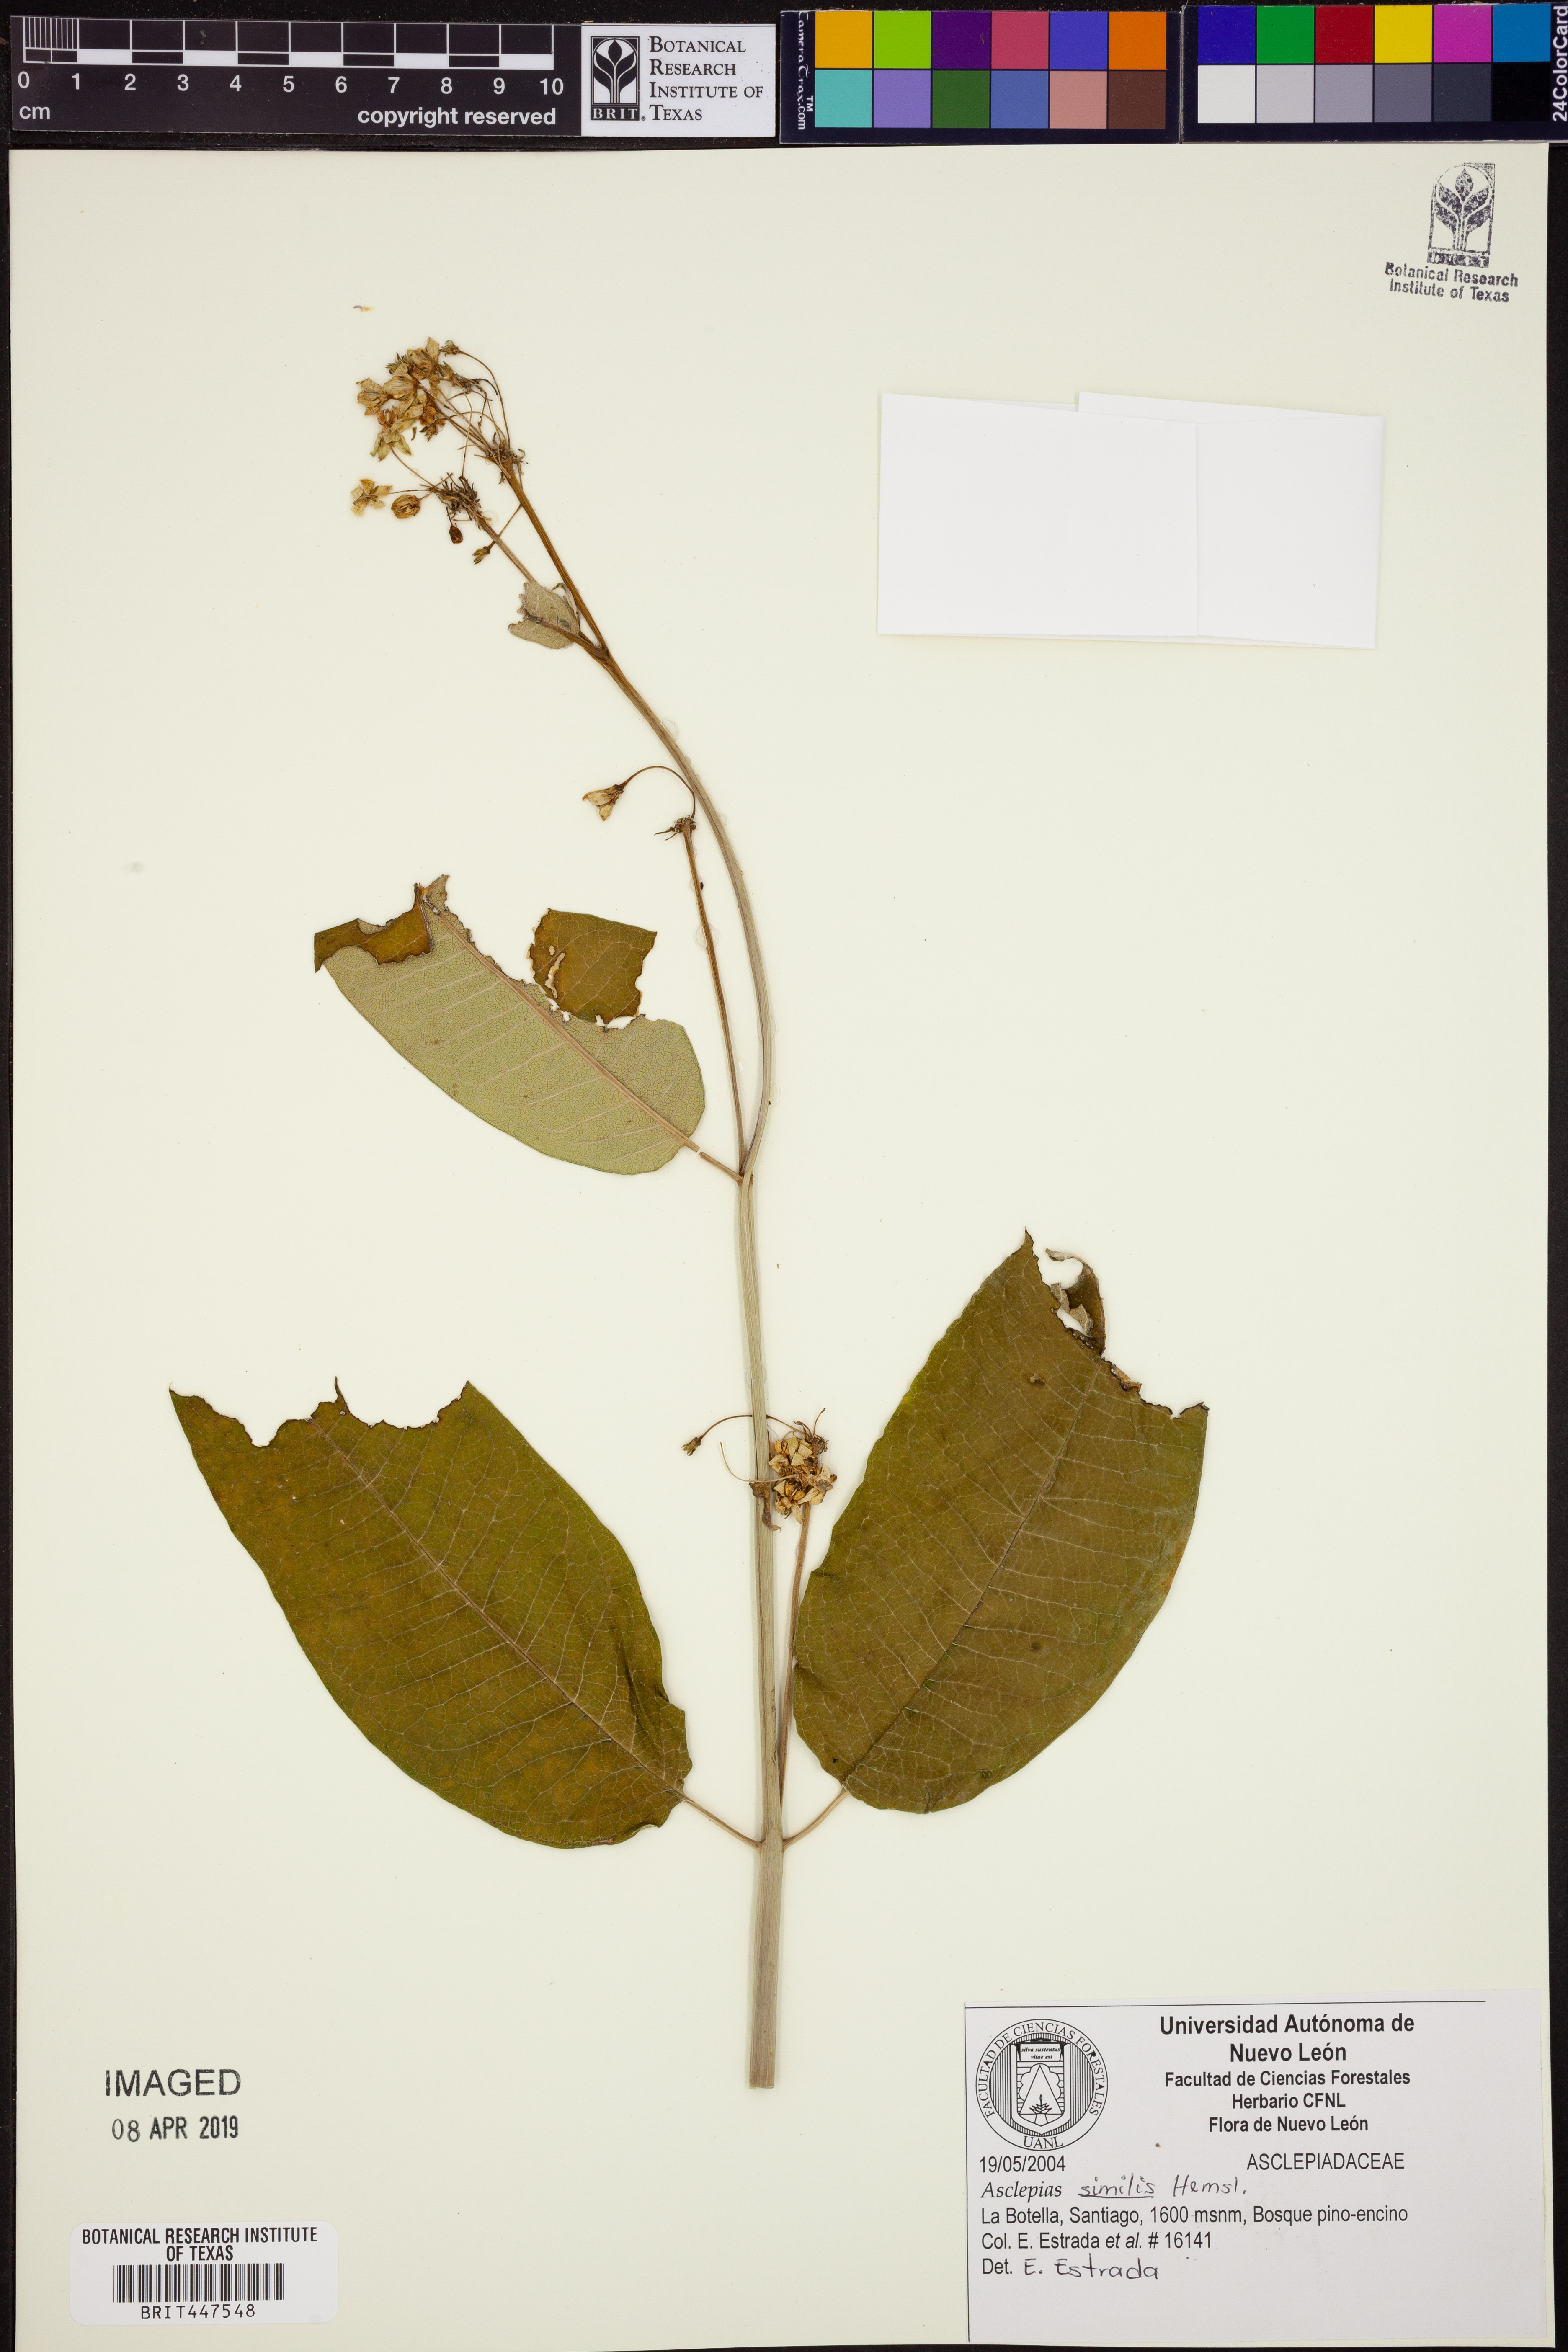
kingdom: Plantae
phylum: Tracheophyta
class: Magnoliopsida
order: Gentianales
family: Apocynaceae
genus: Asclepias
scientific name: Asclepias similis
